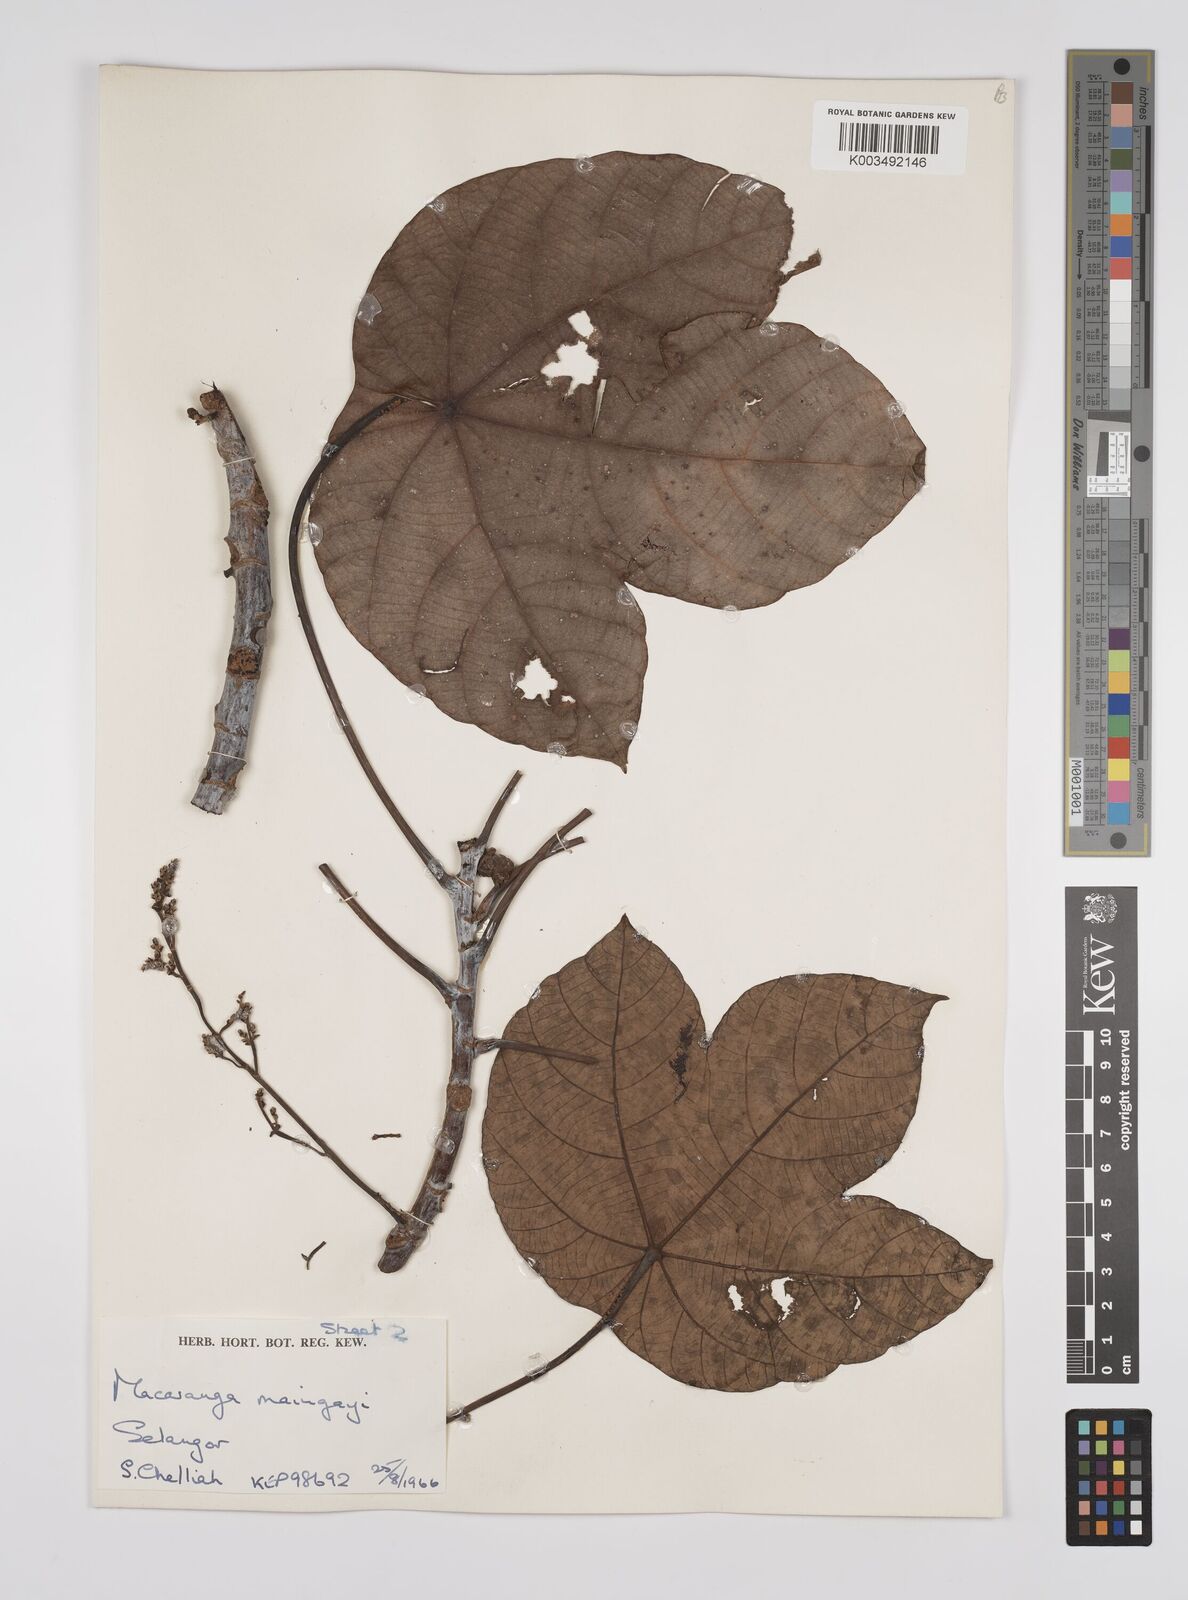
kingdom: Plantae
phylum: Tracheophyta
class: Magnoliopsida
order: Malpighiales
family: Euphorbiaceae
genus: Macaranga
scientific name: Macaranga pruinosa
